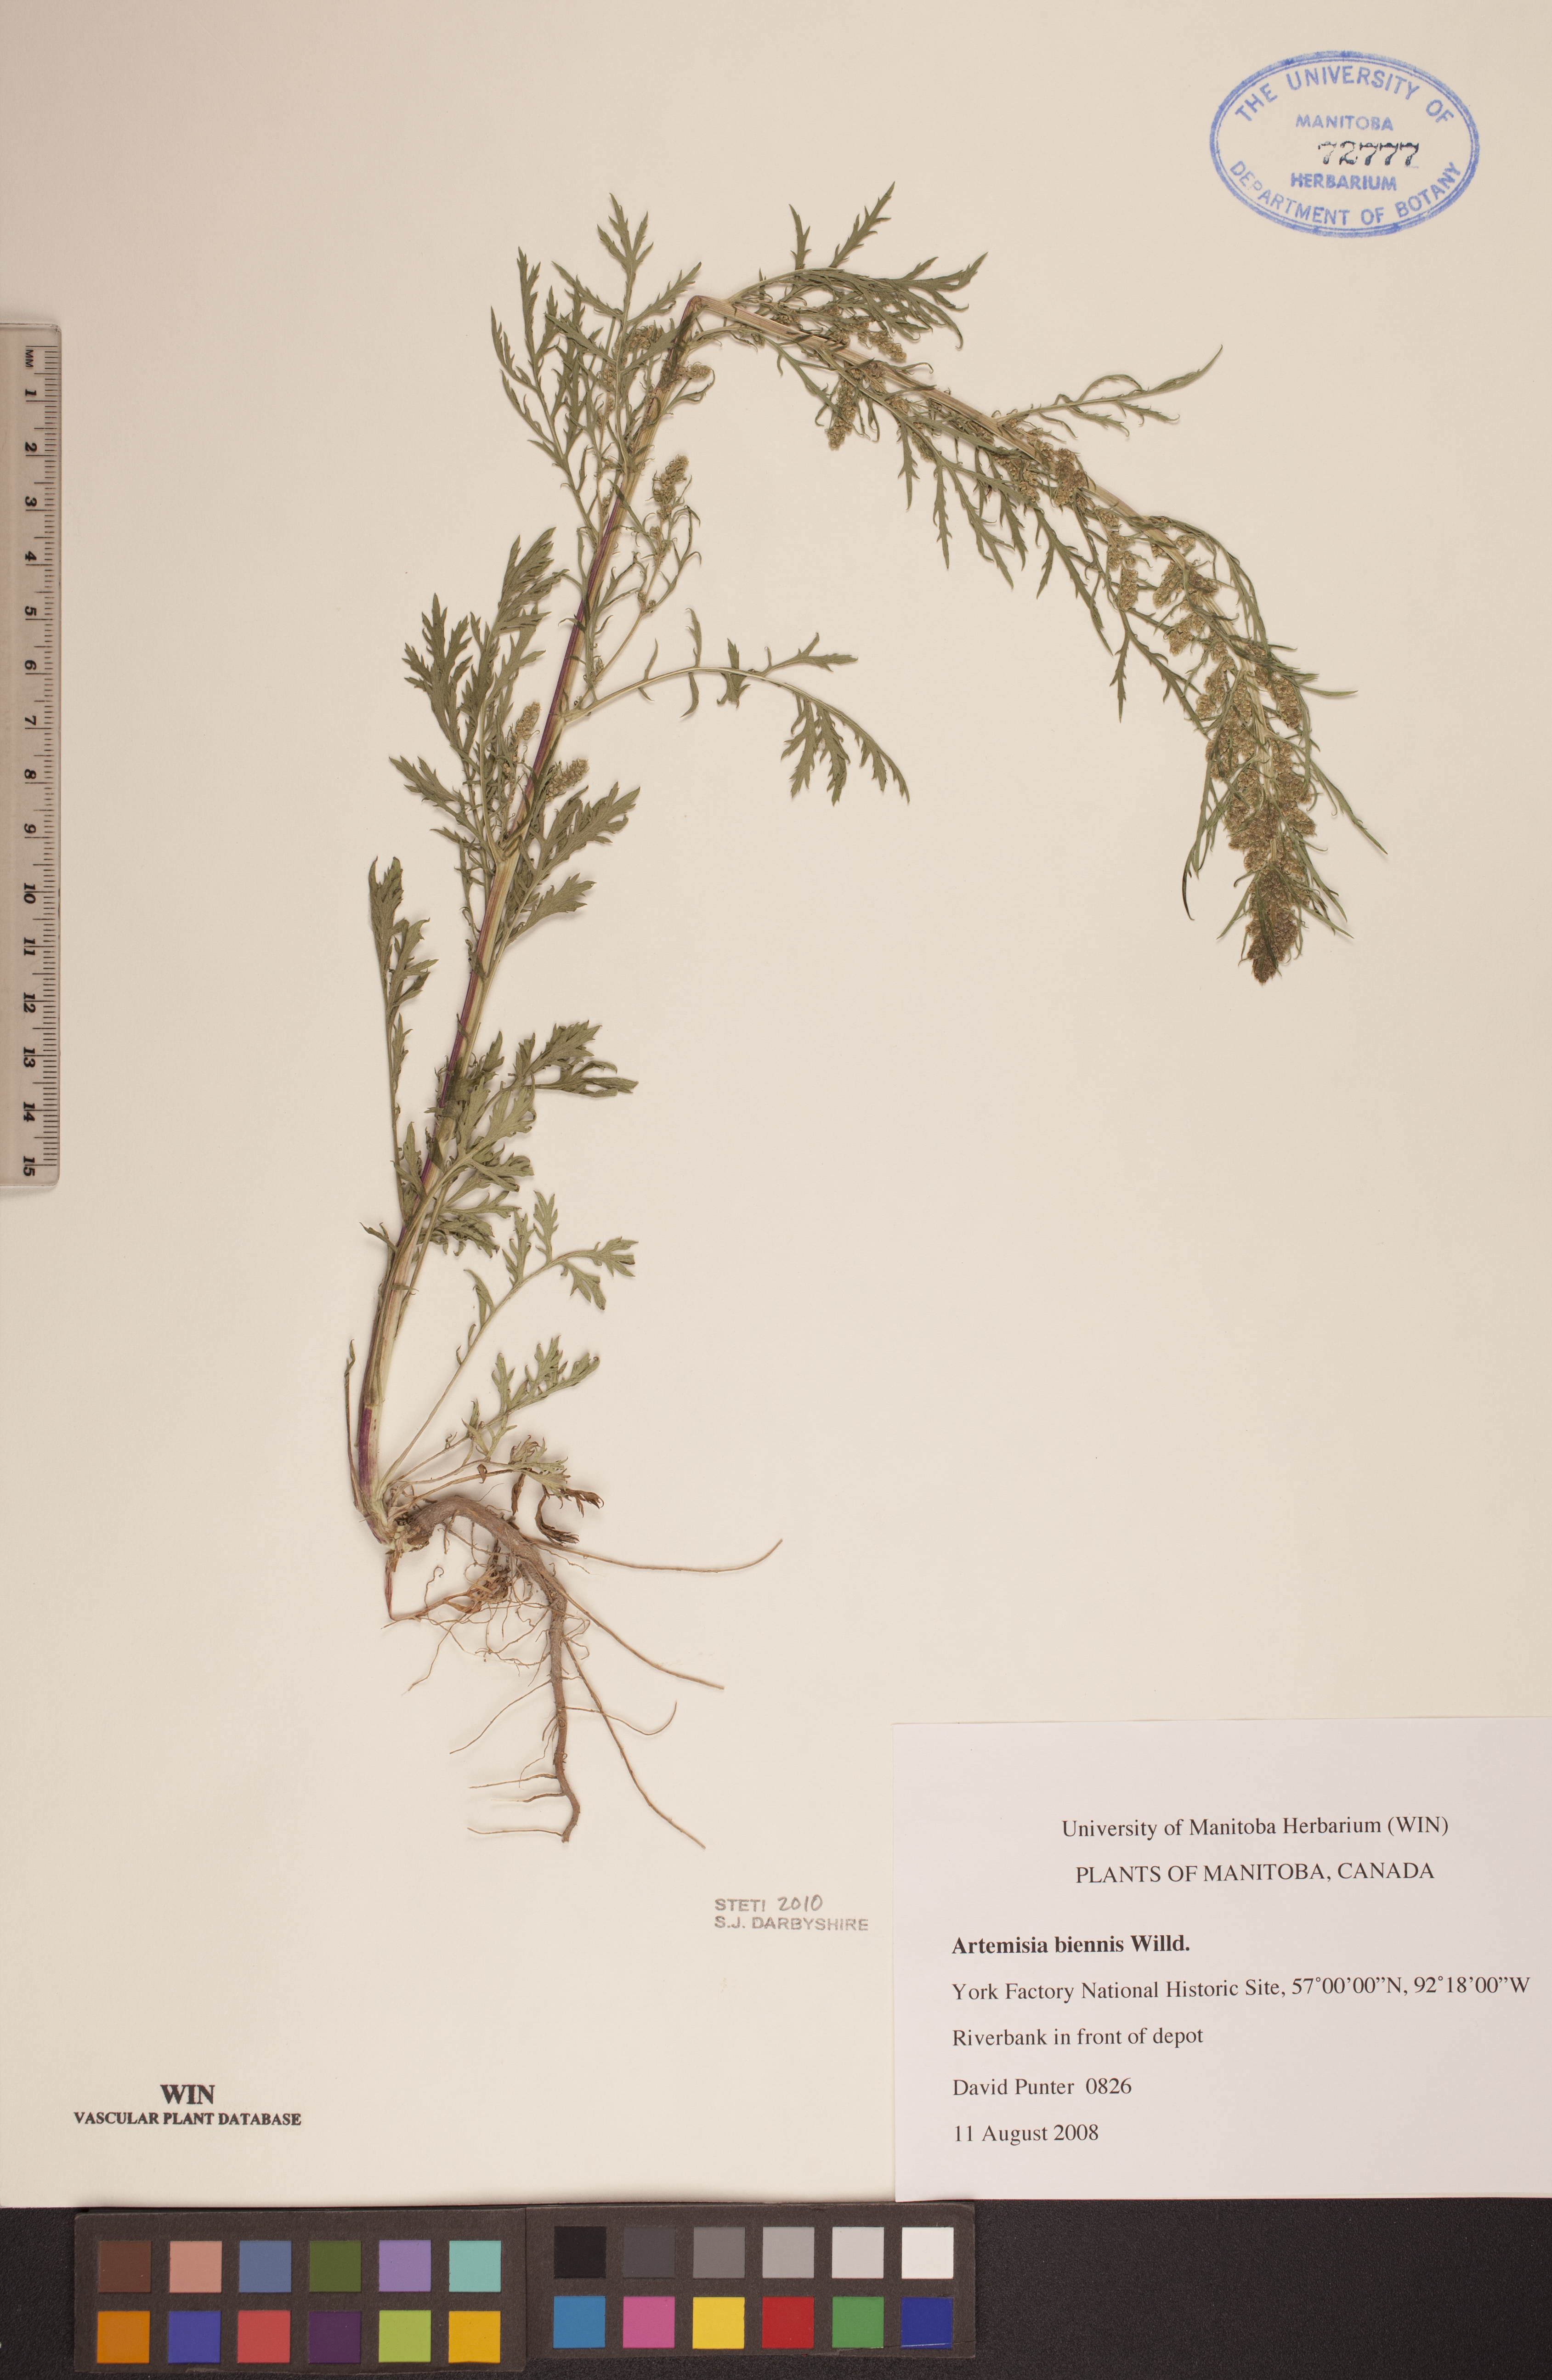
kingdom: Plantae
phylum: Tracheophyta
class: Magnoliopsida
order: Asterales
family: Asteraceae
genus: Artemisia
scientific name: Artemisia biennis
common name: Biennial wormwood
